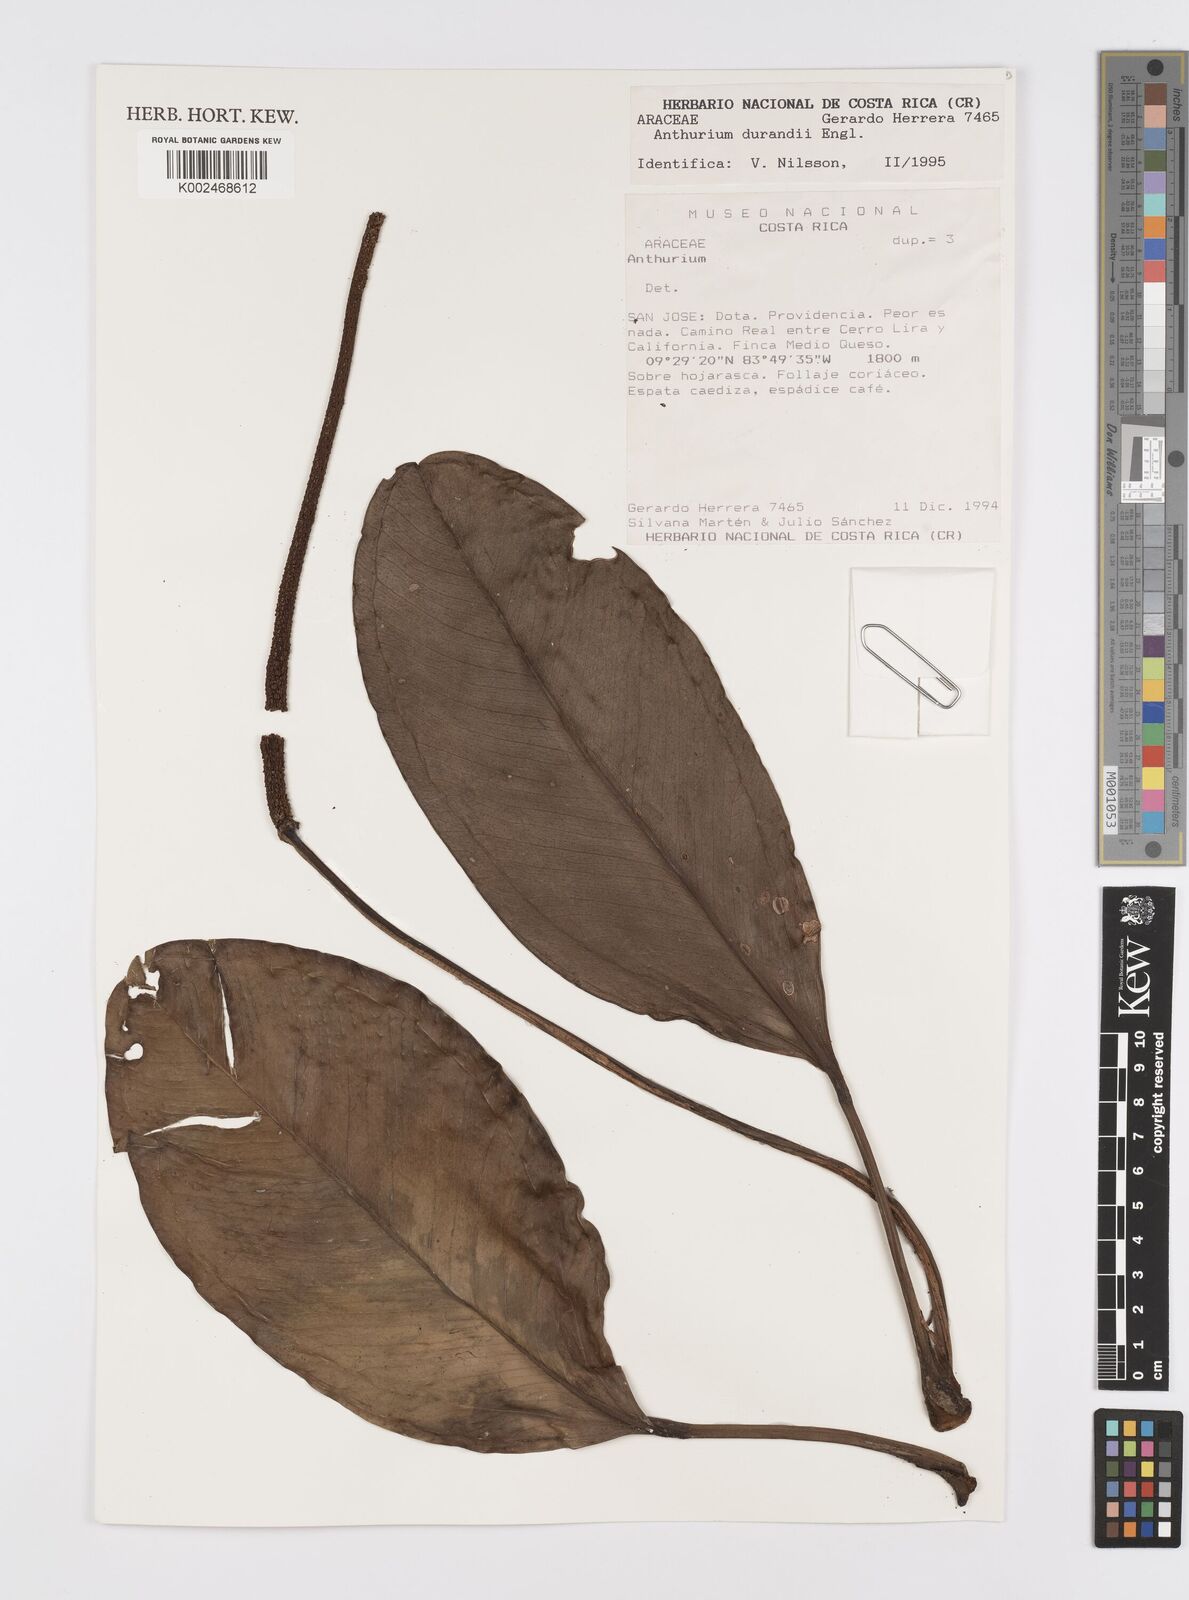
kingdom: Plantae
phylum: Tracheophyta
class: Liliopsida
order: Alismatales
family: Araceae
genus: Anthurium
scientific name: Anthurium durandii
